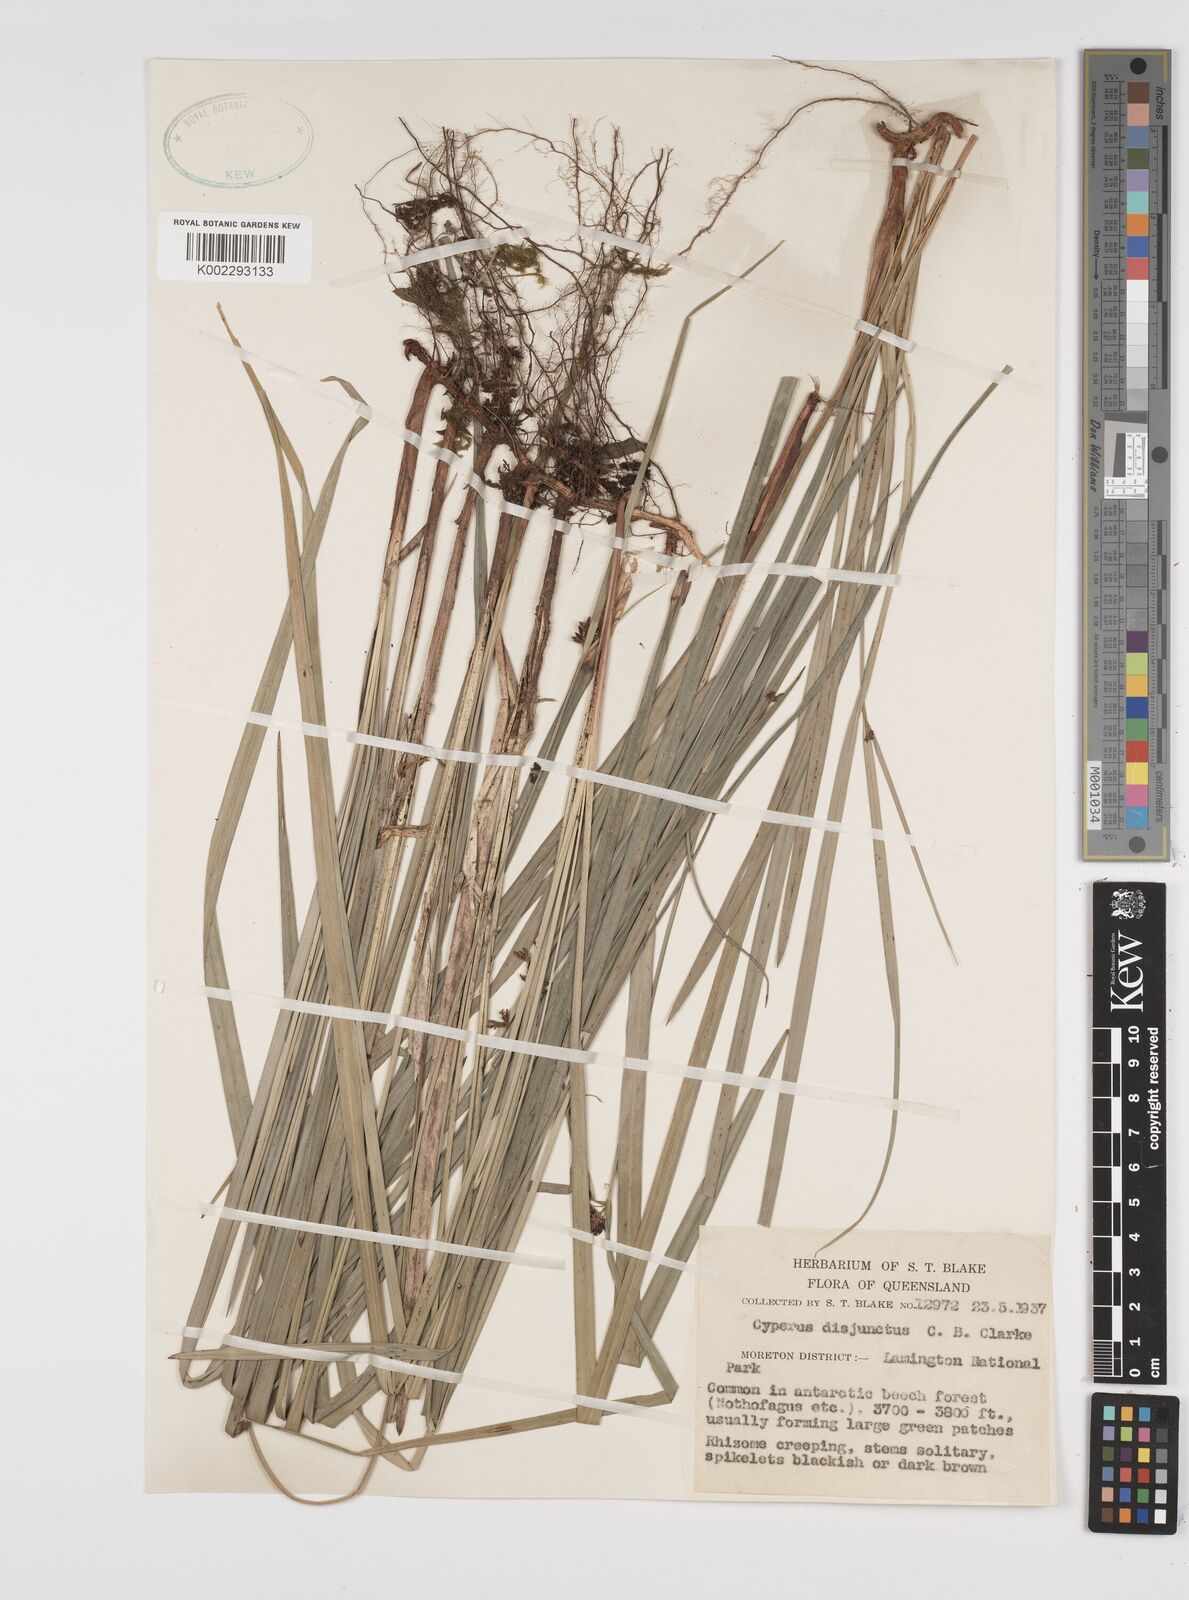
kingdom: Plantae
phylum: Tracheophyta
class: Liliopsida
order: Poales
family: Cyperaceae
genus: Cyperus
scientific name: Cyperus disjunctus
